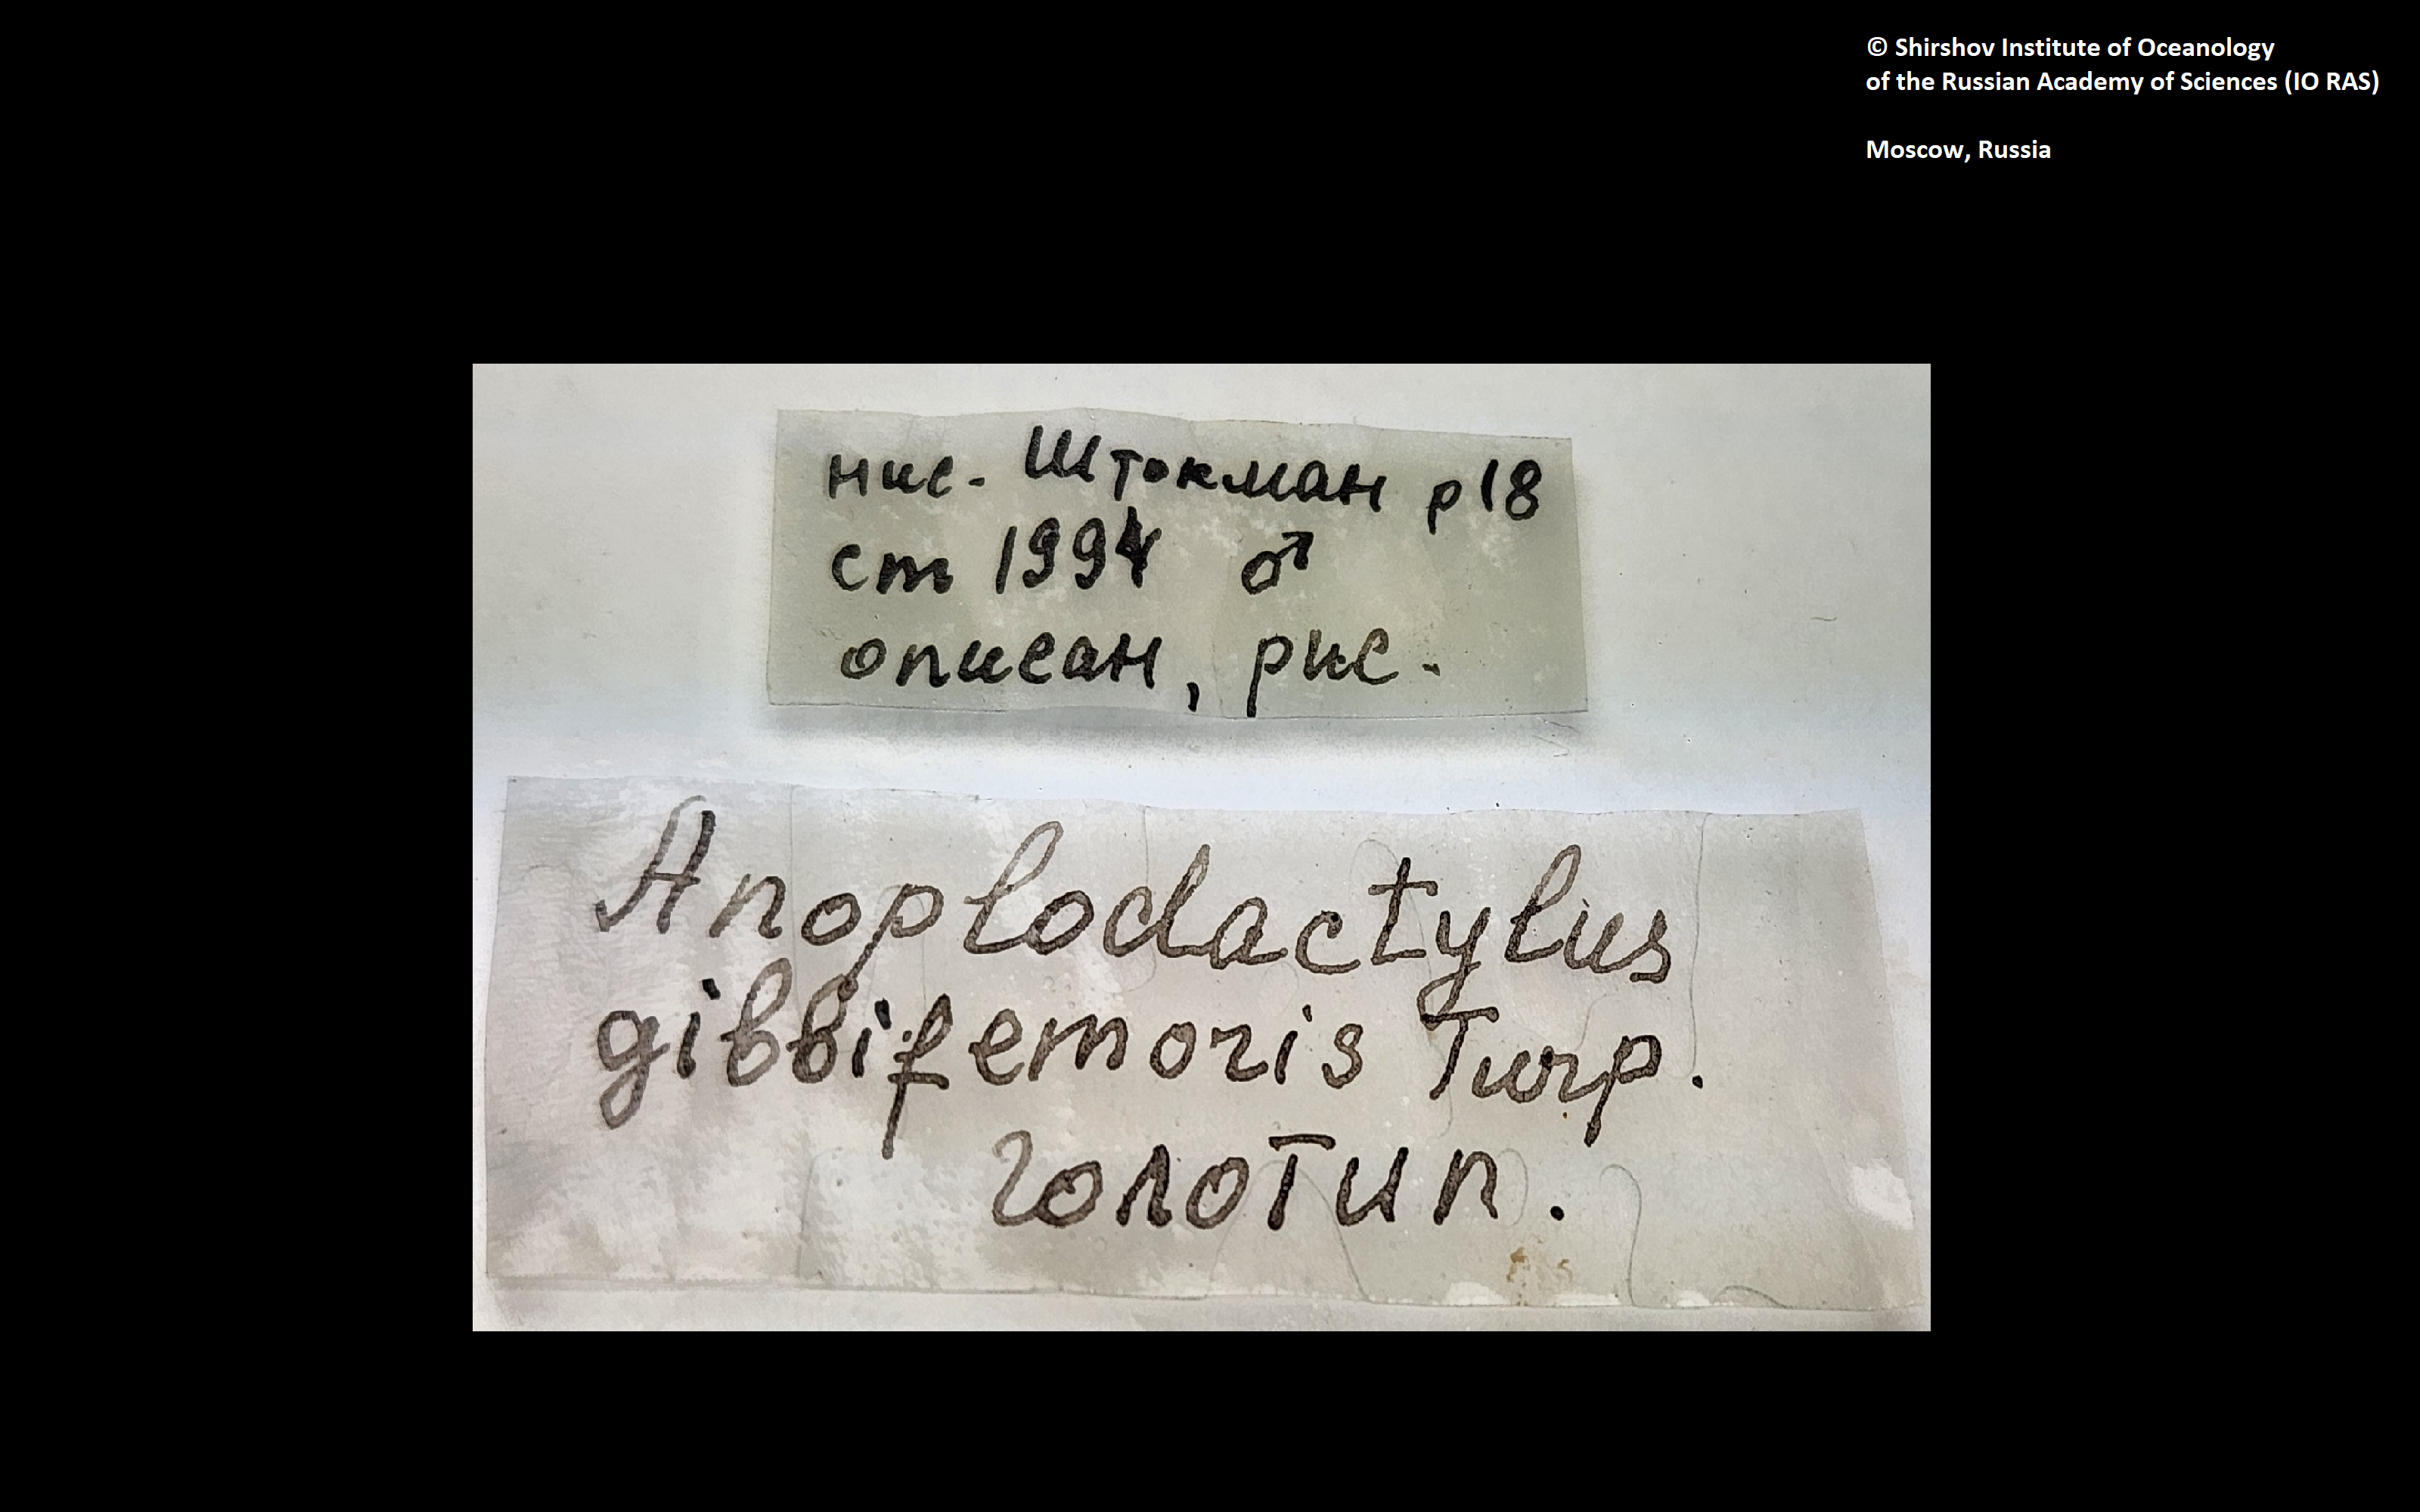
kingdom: Animalia
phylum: Arthropoda
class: Pycnogonida
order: Pantopoda
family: Phoxichilidiidae
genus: Anoplodactylus
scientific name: Anoplodactylus gibbifemoris
